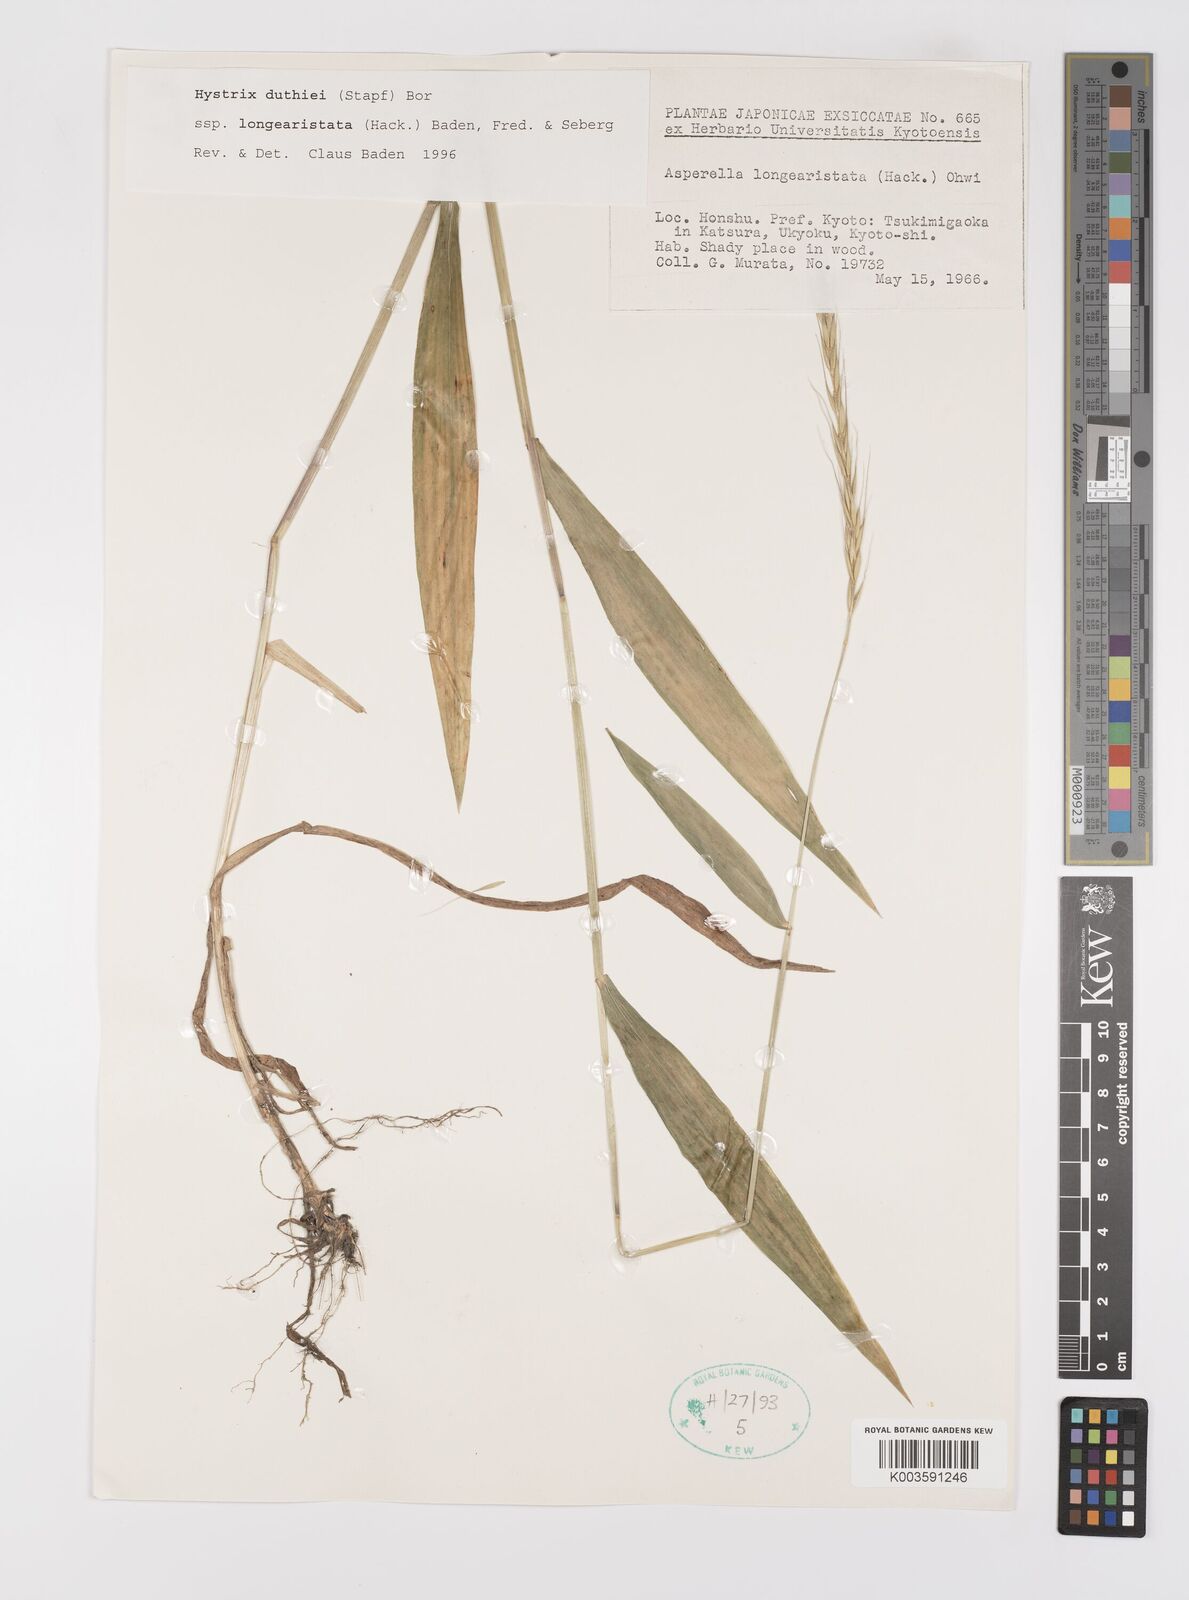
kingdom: Plantae
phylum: Tracheophyta
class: Liliopsida
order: Poales
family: Poaceae
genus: Leymus
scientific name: Leymus duthiei
